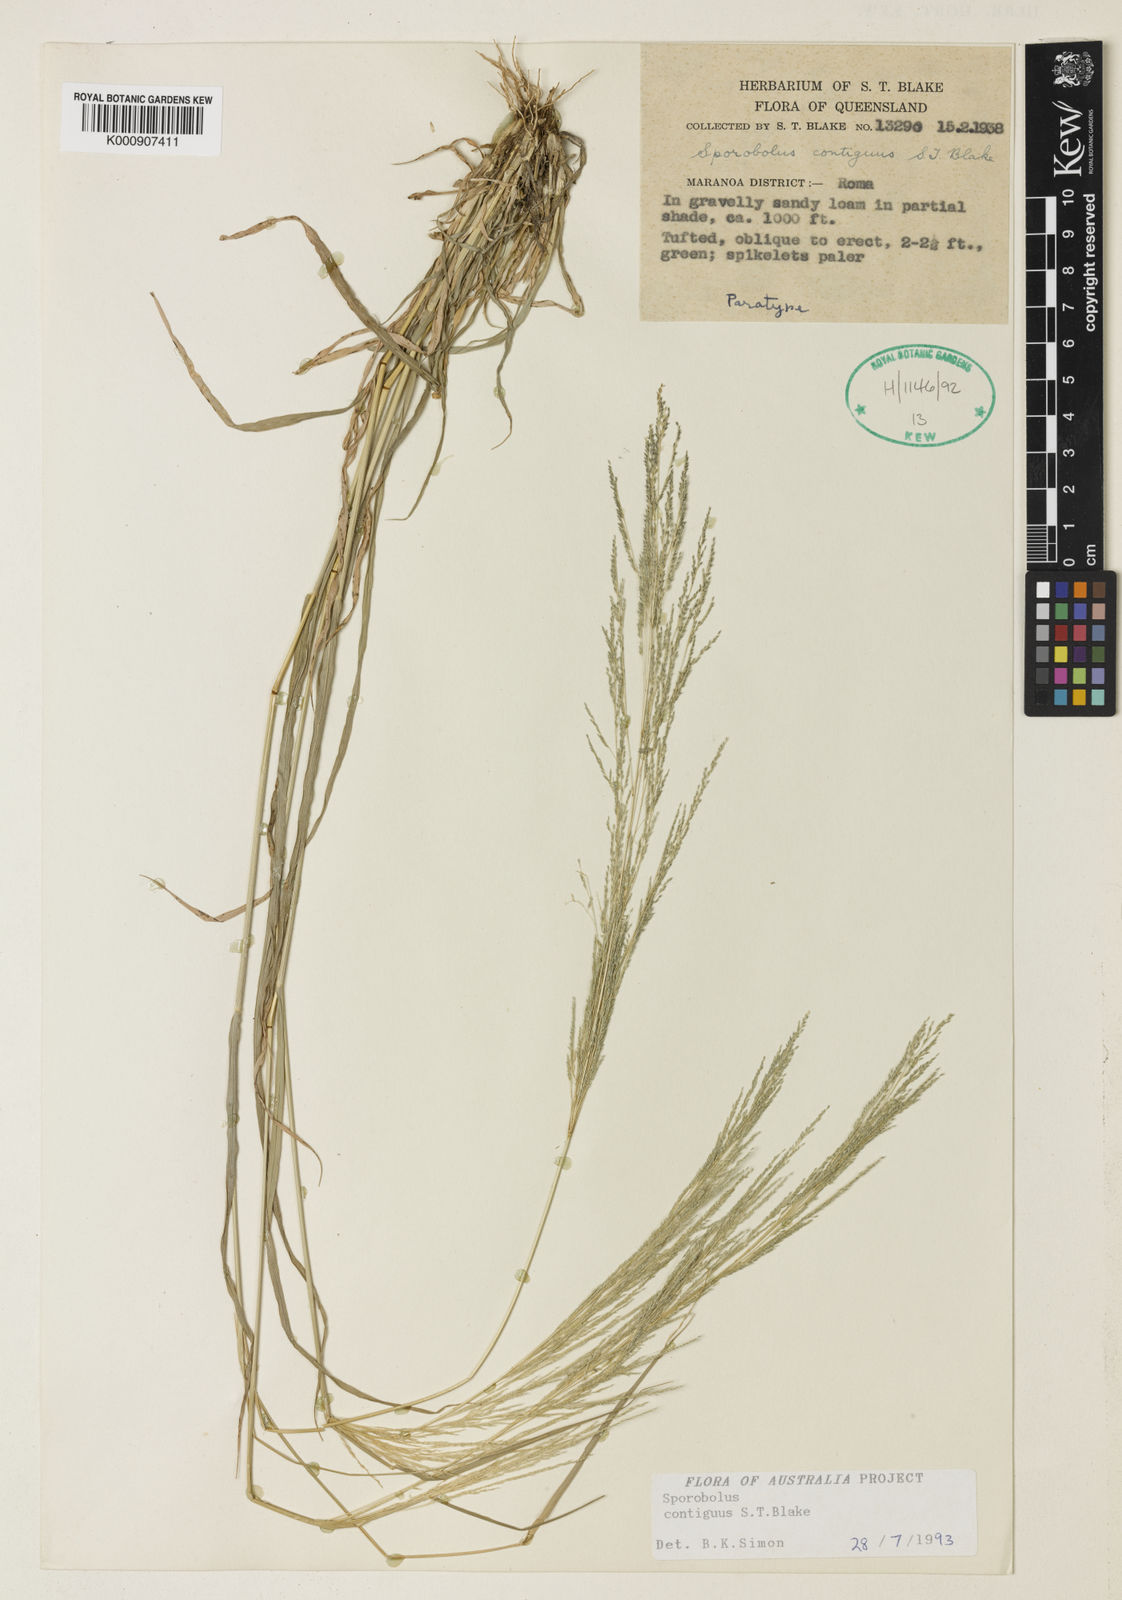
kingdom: Plantae
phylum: Tracheophyta
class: Liliopsida
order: Poales
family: Poaceae
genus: Sporobolus
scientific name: Sporobolus contiguus
